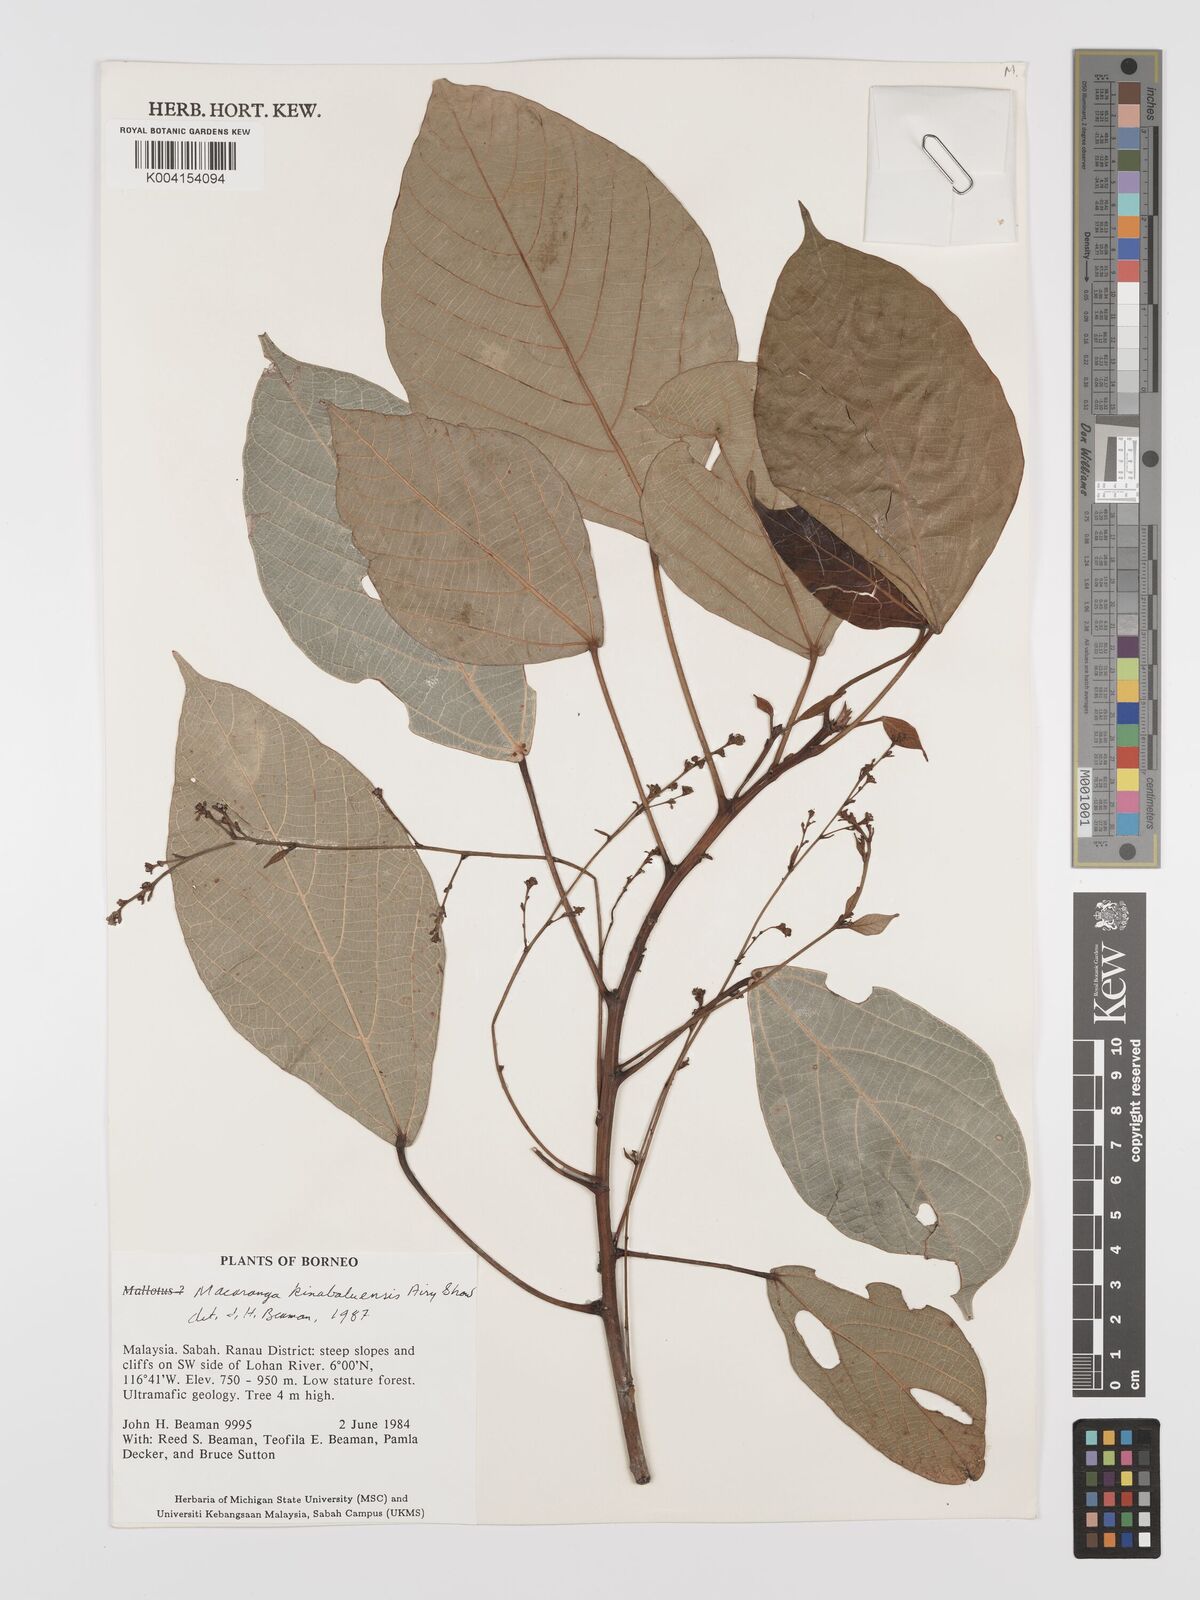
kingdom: Plantae
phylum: Tracheophyta
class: Magnoliopsida
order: Malpighiales
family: Euphorbiaceae
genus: Macaranga
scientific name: Macaranga kinabaluensis
